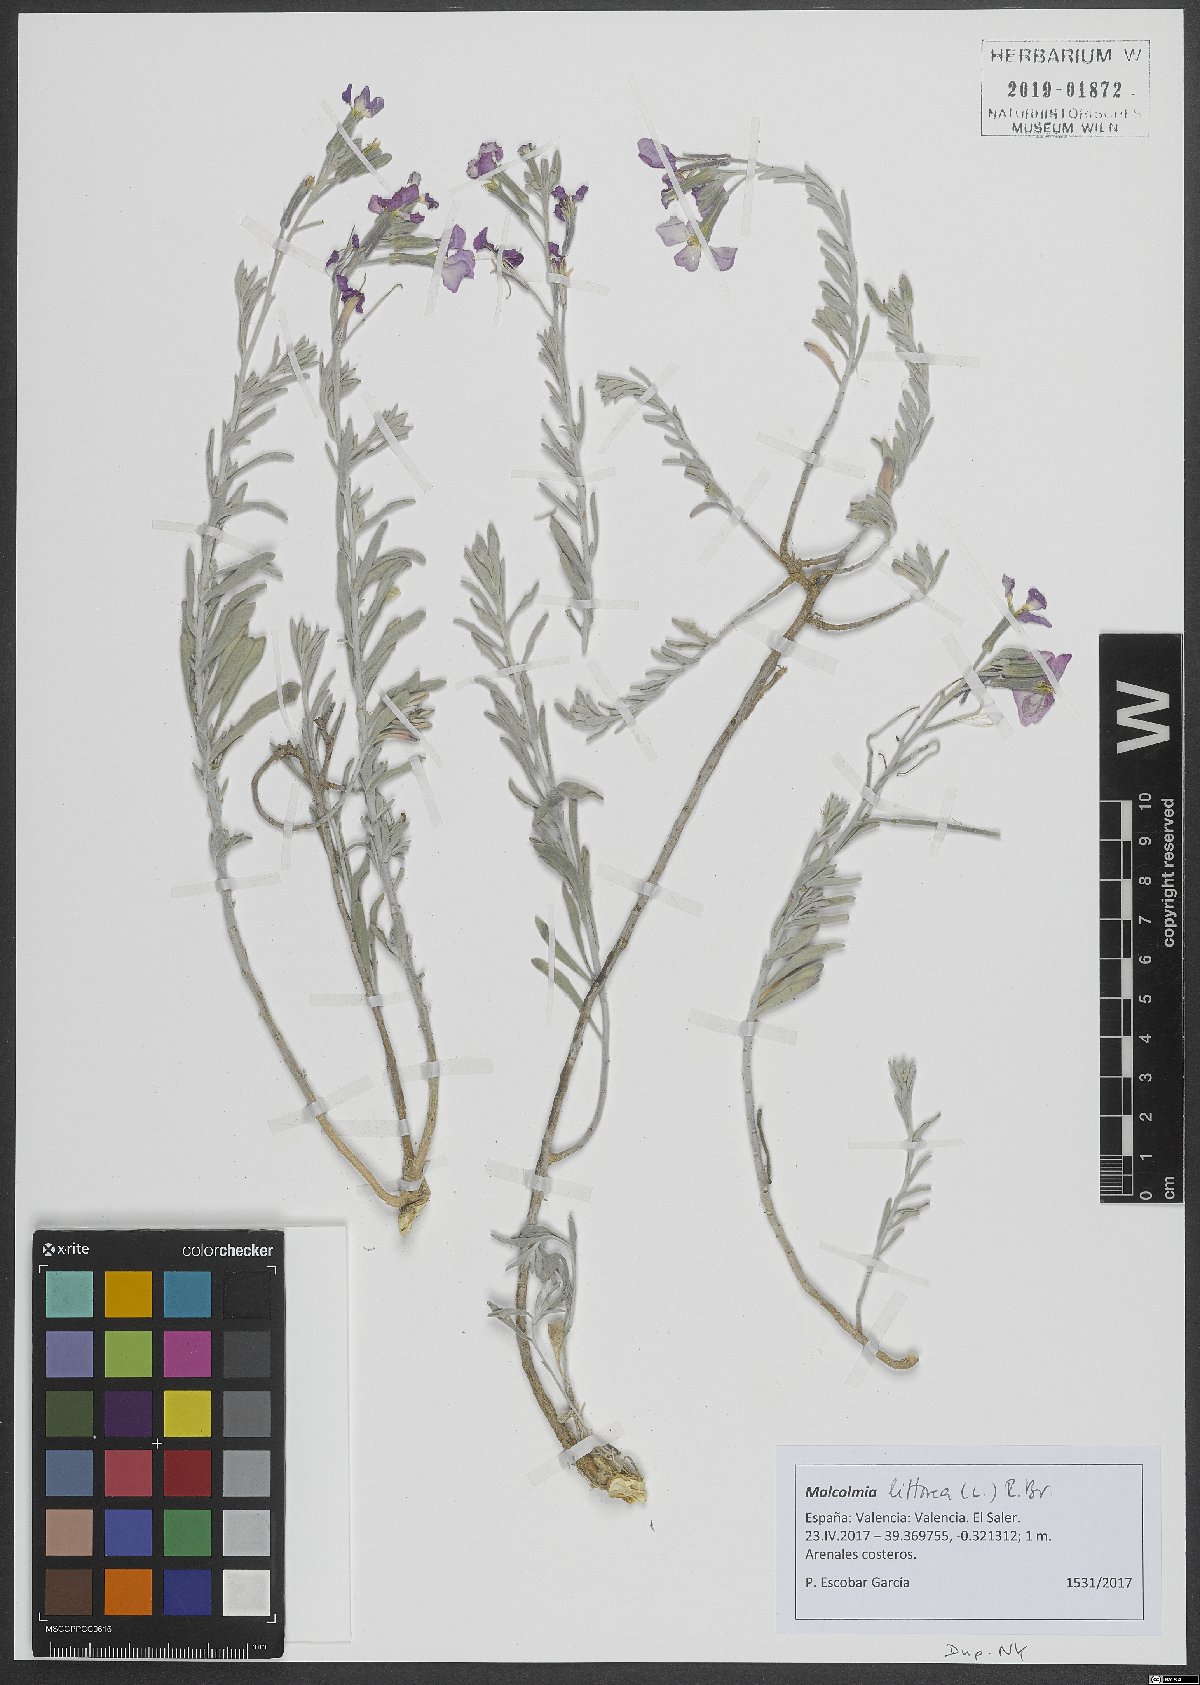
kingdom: Plantae
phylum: Tracheophyta
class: Magnoliopsida
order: Brassicales
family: Brassicaceae
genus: Marcuskochia
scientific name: Marcuskochia littorea
